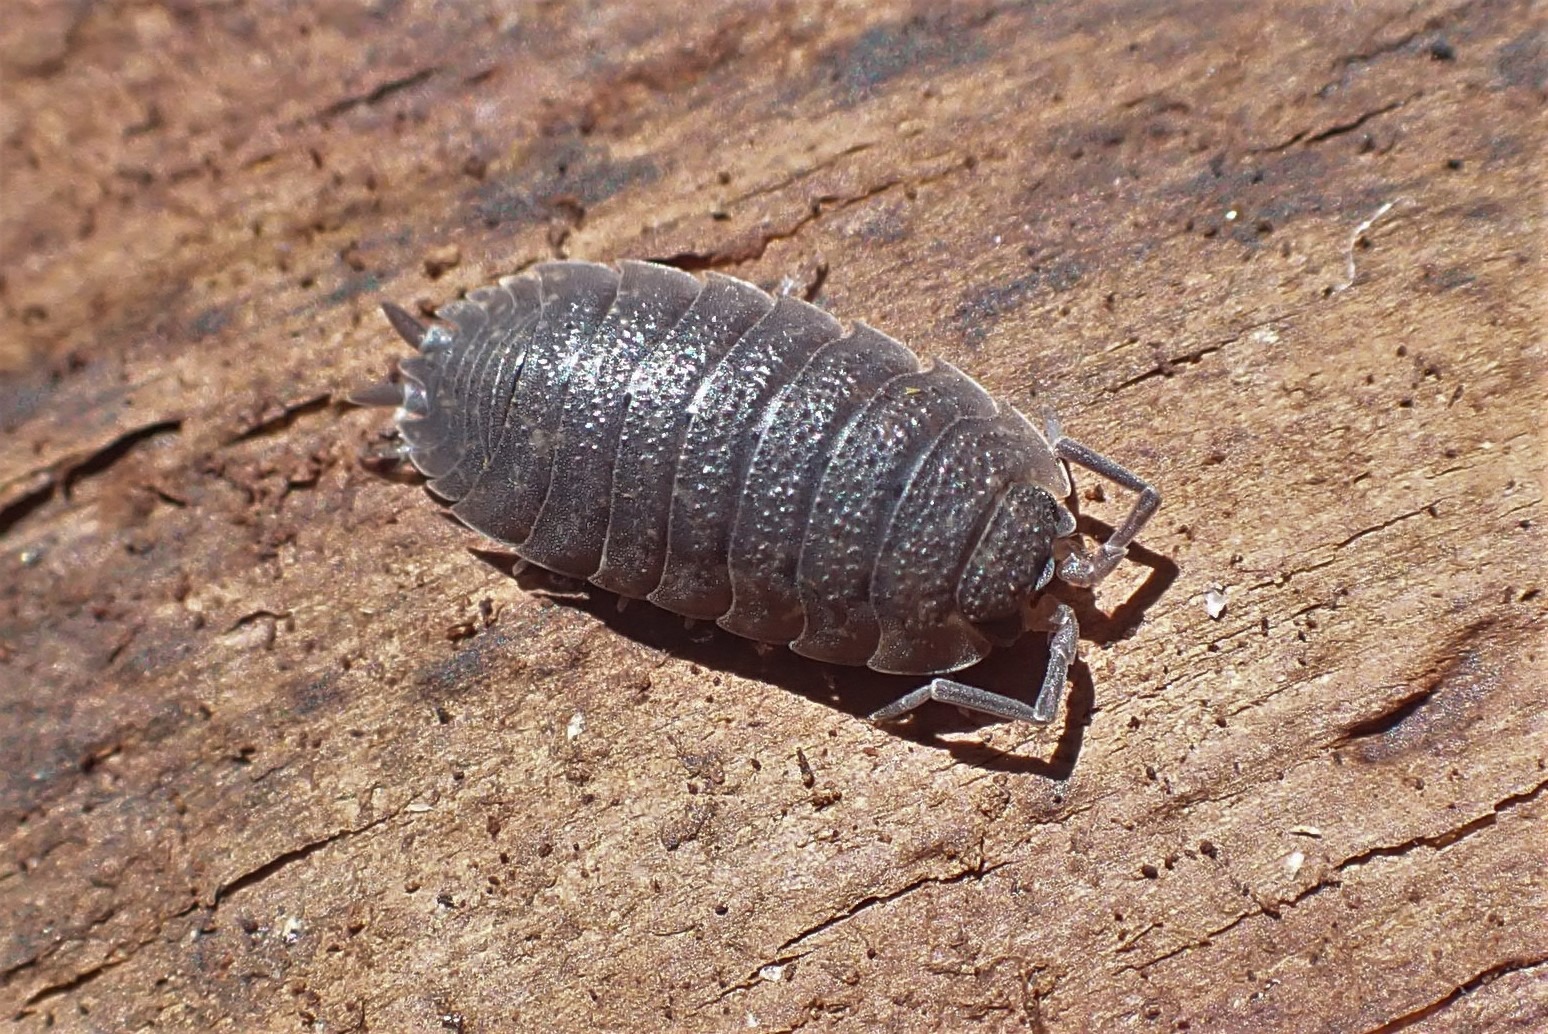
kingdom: Animalia
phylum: Arthropoda
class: Malacostraca
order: Isopoda
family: Porcellionidae
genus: Porcellio
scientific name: Porcellio scaber
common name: Grå bænkebider
